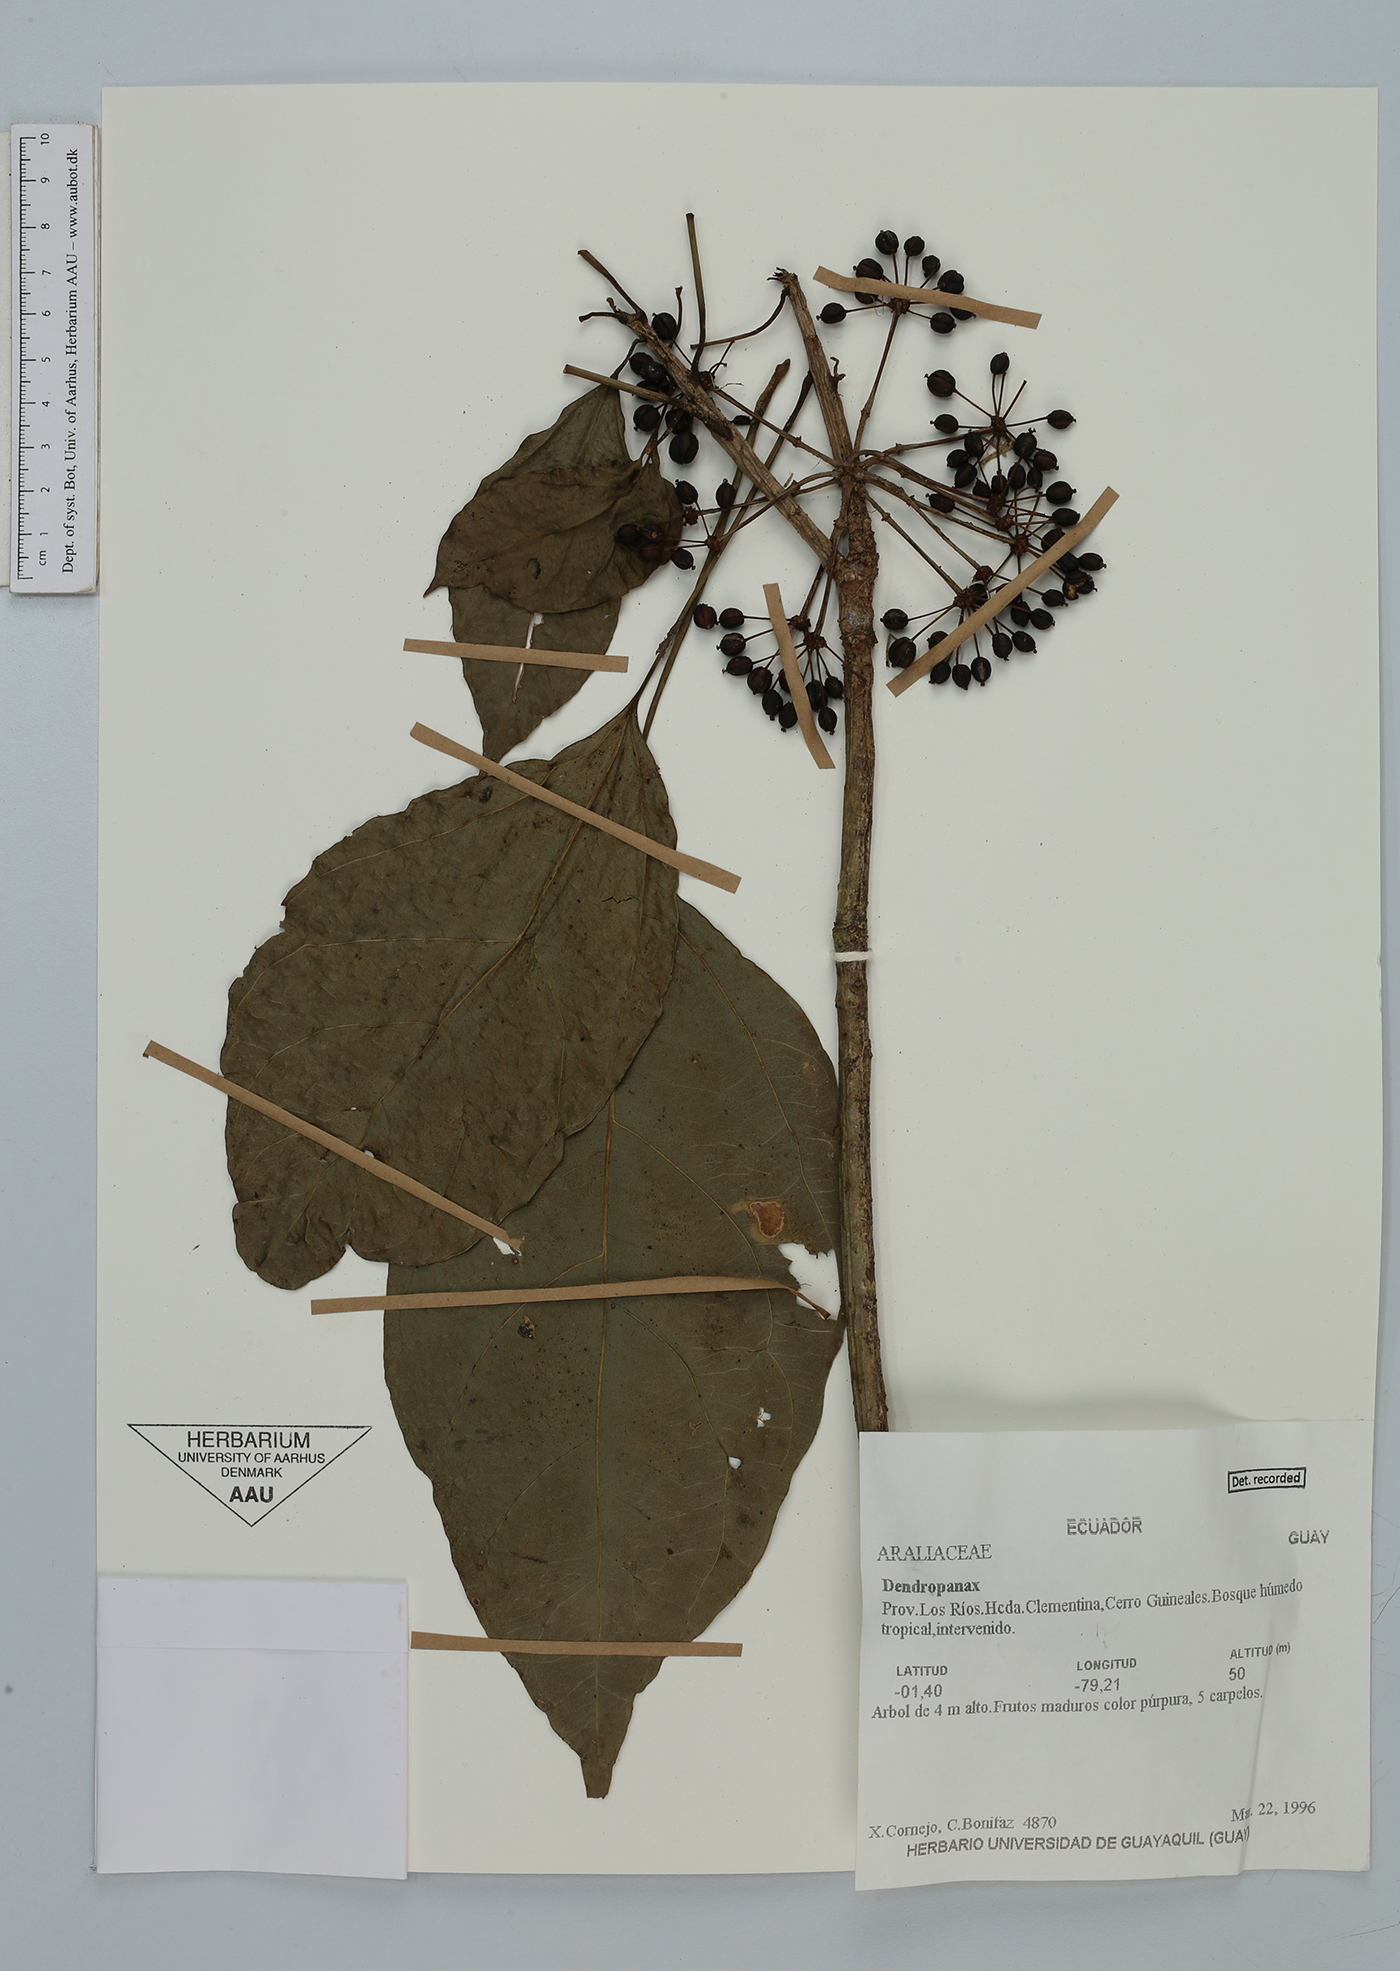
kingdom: Plantae
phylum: Tracheophyta
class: Magnoliopsida
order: Apiales
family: Araliaceae
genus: Dendropanax
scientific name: Dendropanax
